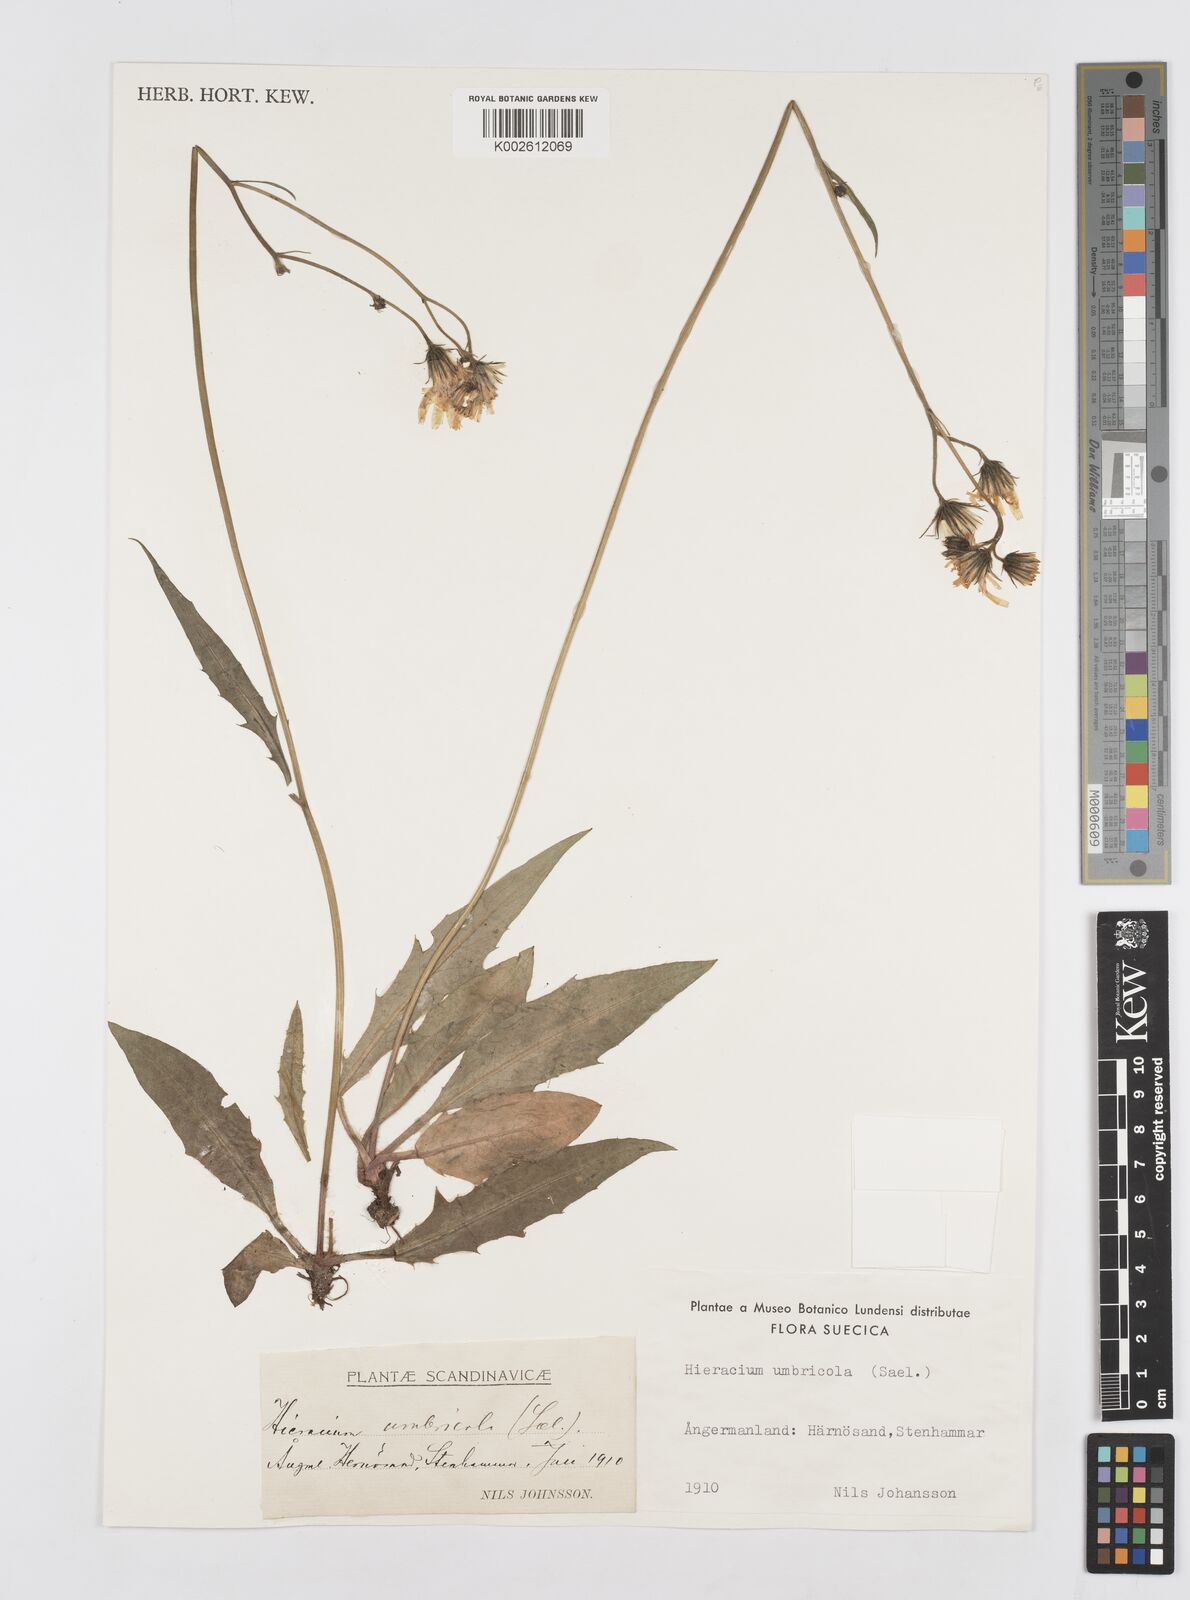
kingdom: Plantae
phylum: Tracheophyta
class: Magnoliopsida
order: Asterales
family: Asteraceae
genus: Hieracium
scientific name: Hieracium umbricola
